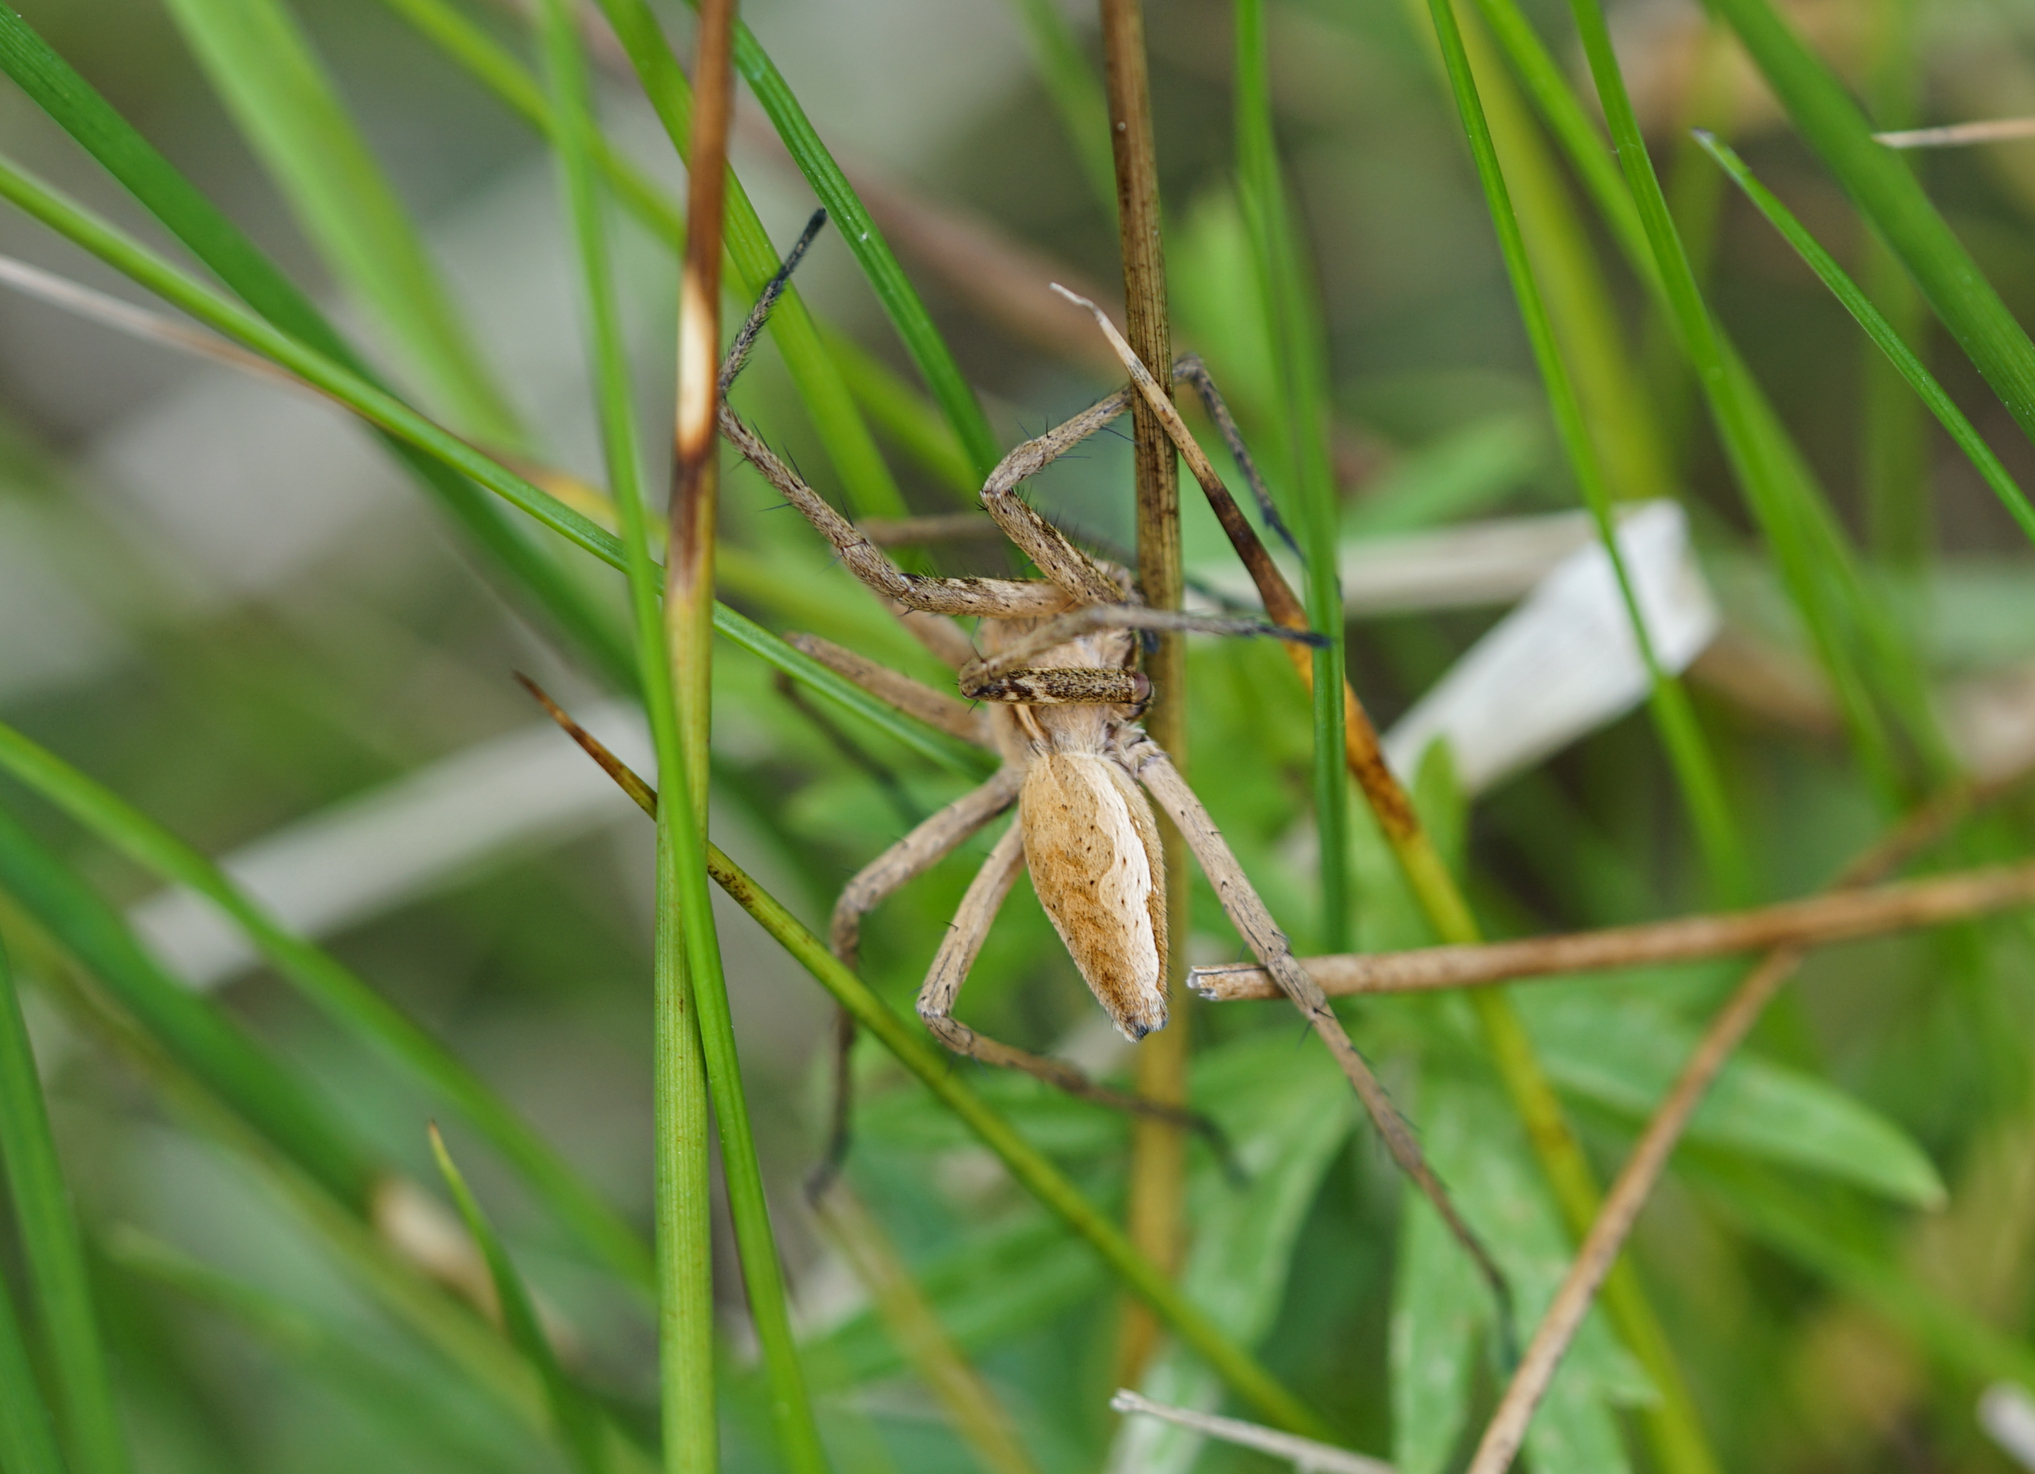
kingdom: Animalia
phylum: Arthropoda
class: Arachnida
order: Araneae
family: Pisauridae
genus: Pisaura
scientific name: Pisaura mirabilis
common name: Tent spider
